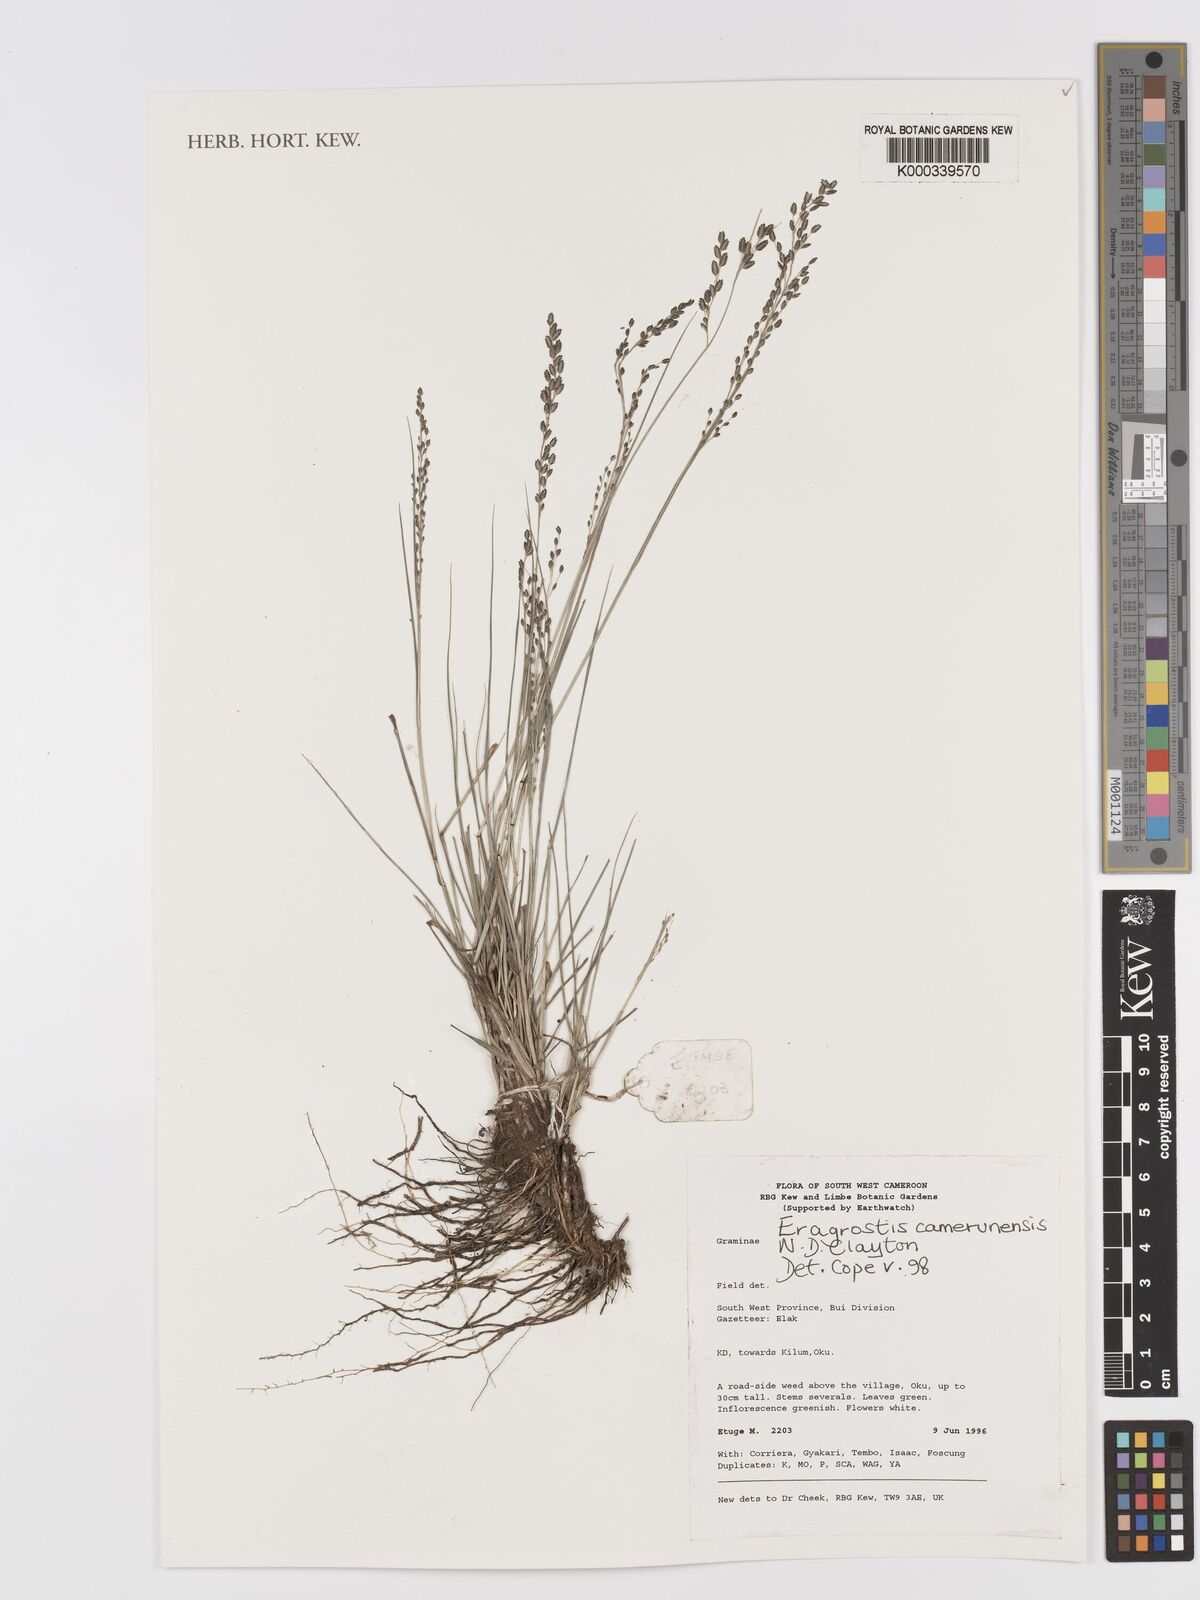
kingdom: Plantae
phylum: Tracheophyta
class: Liliopsida
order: Poales
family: Poaceae
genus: Eragrostis
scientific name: Eragrostis camerunensis
